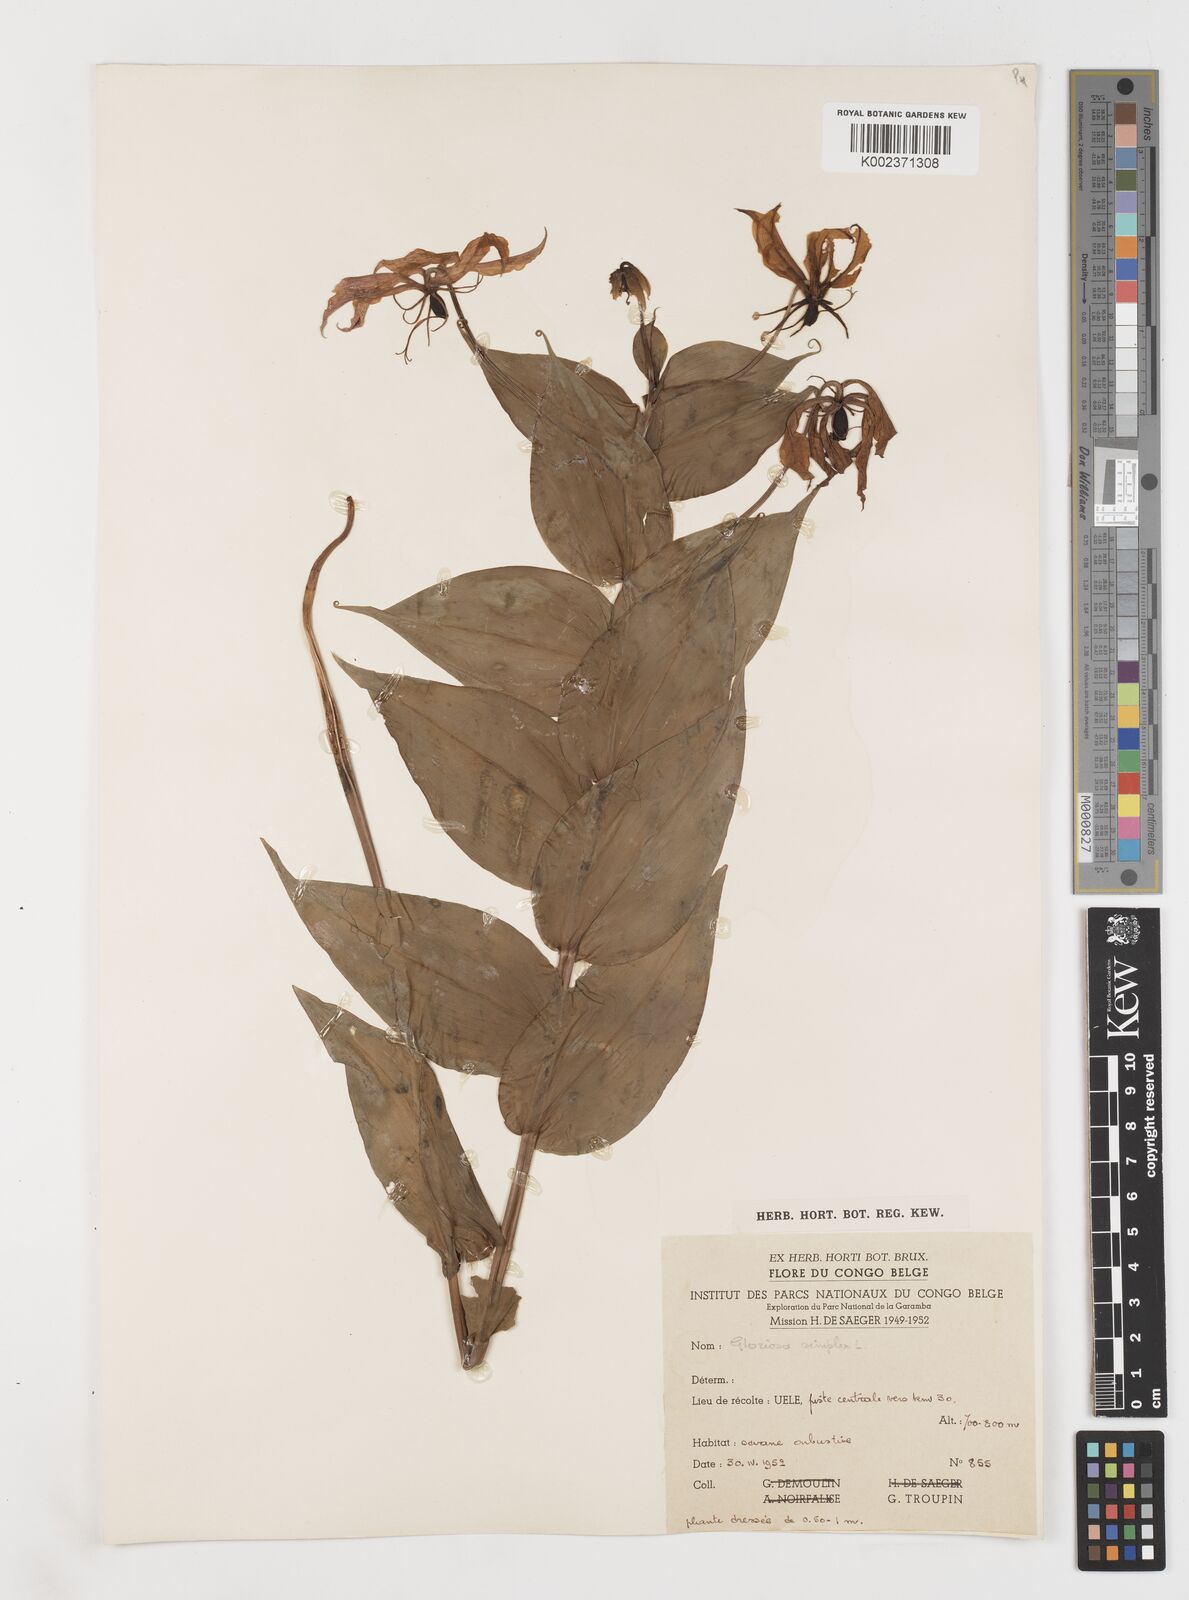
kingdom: Plantae
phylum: Tracheophyta
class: Liliopsida
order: Liliales
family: Colchicaceae
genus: Gloriosa
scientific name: Gloriosa simplex
